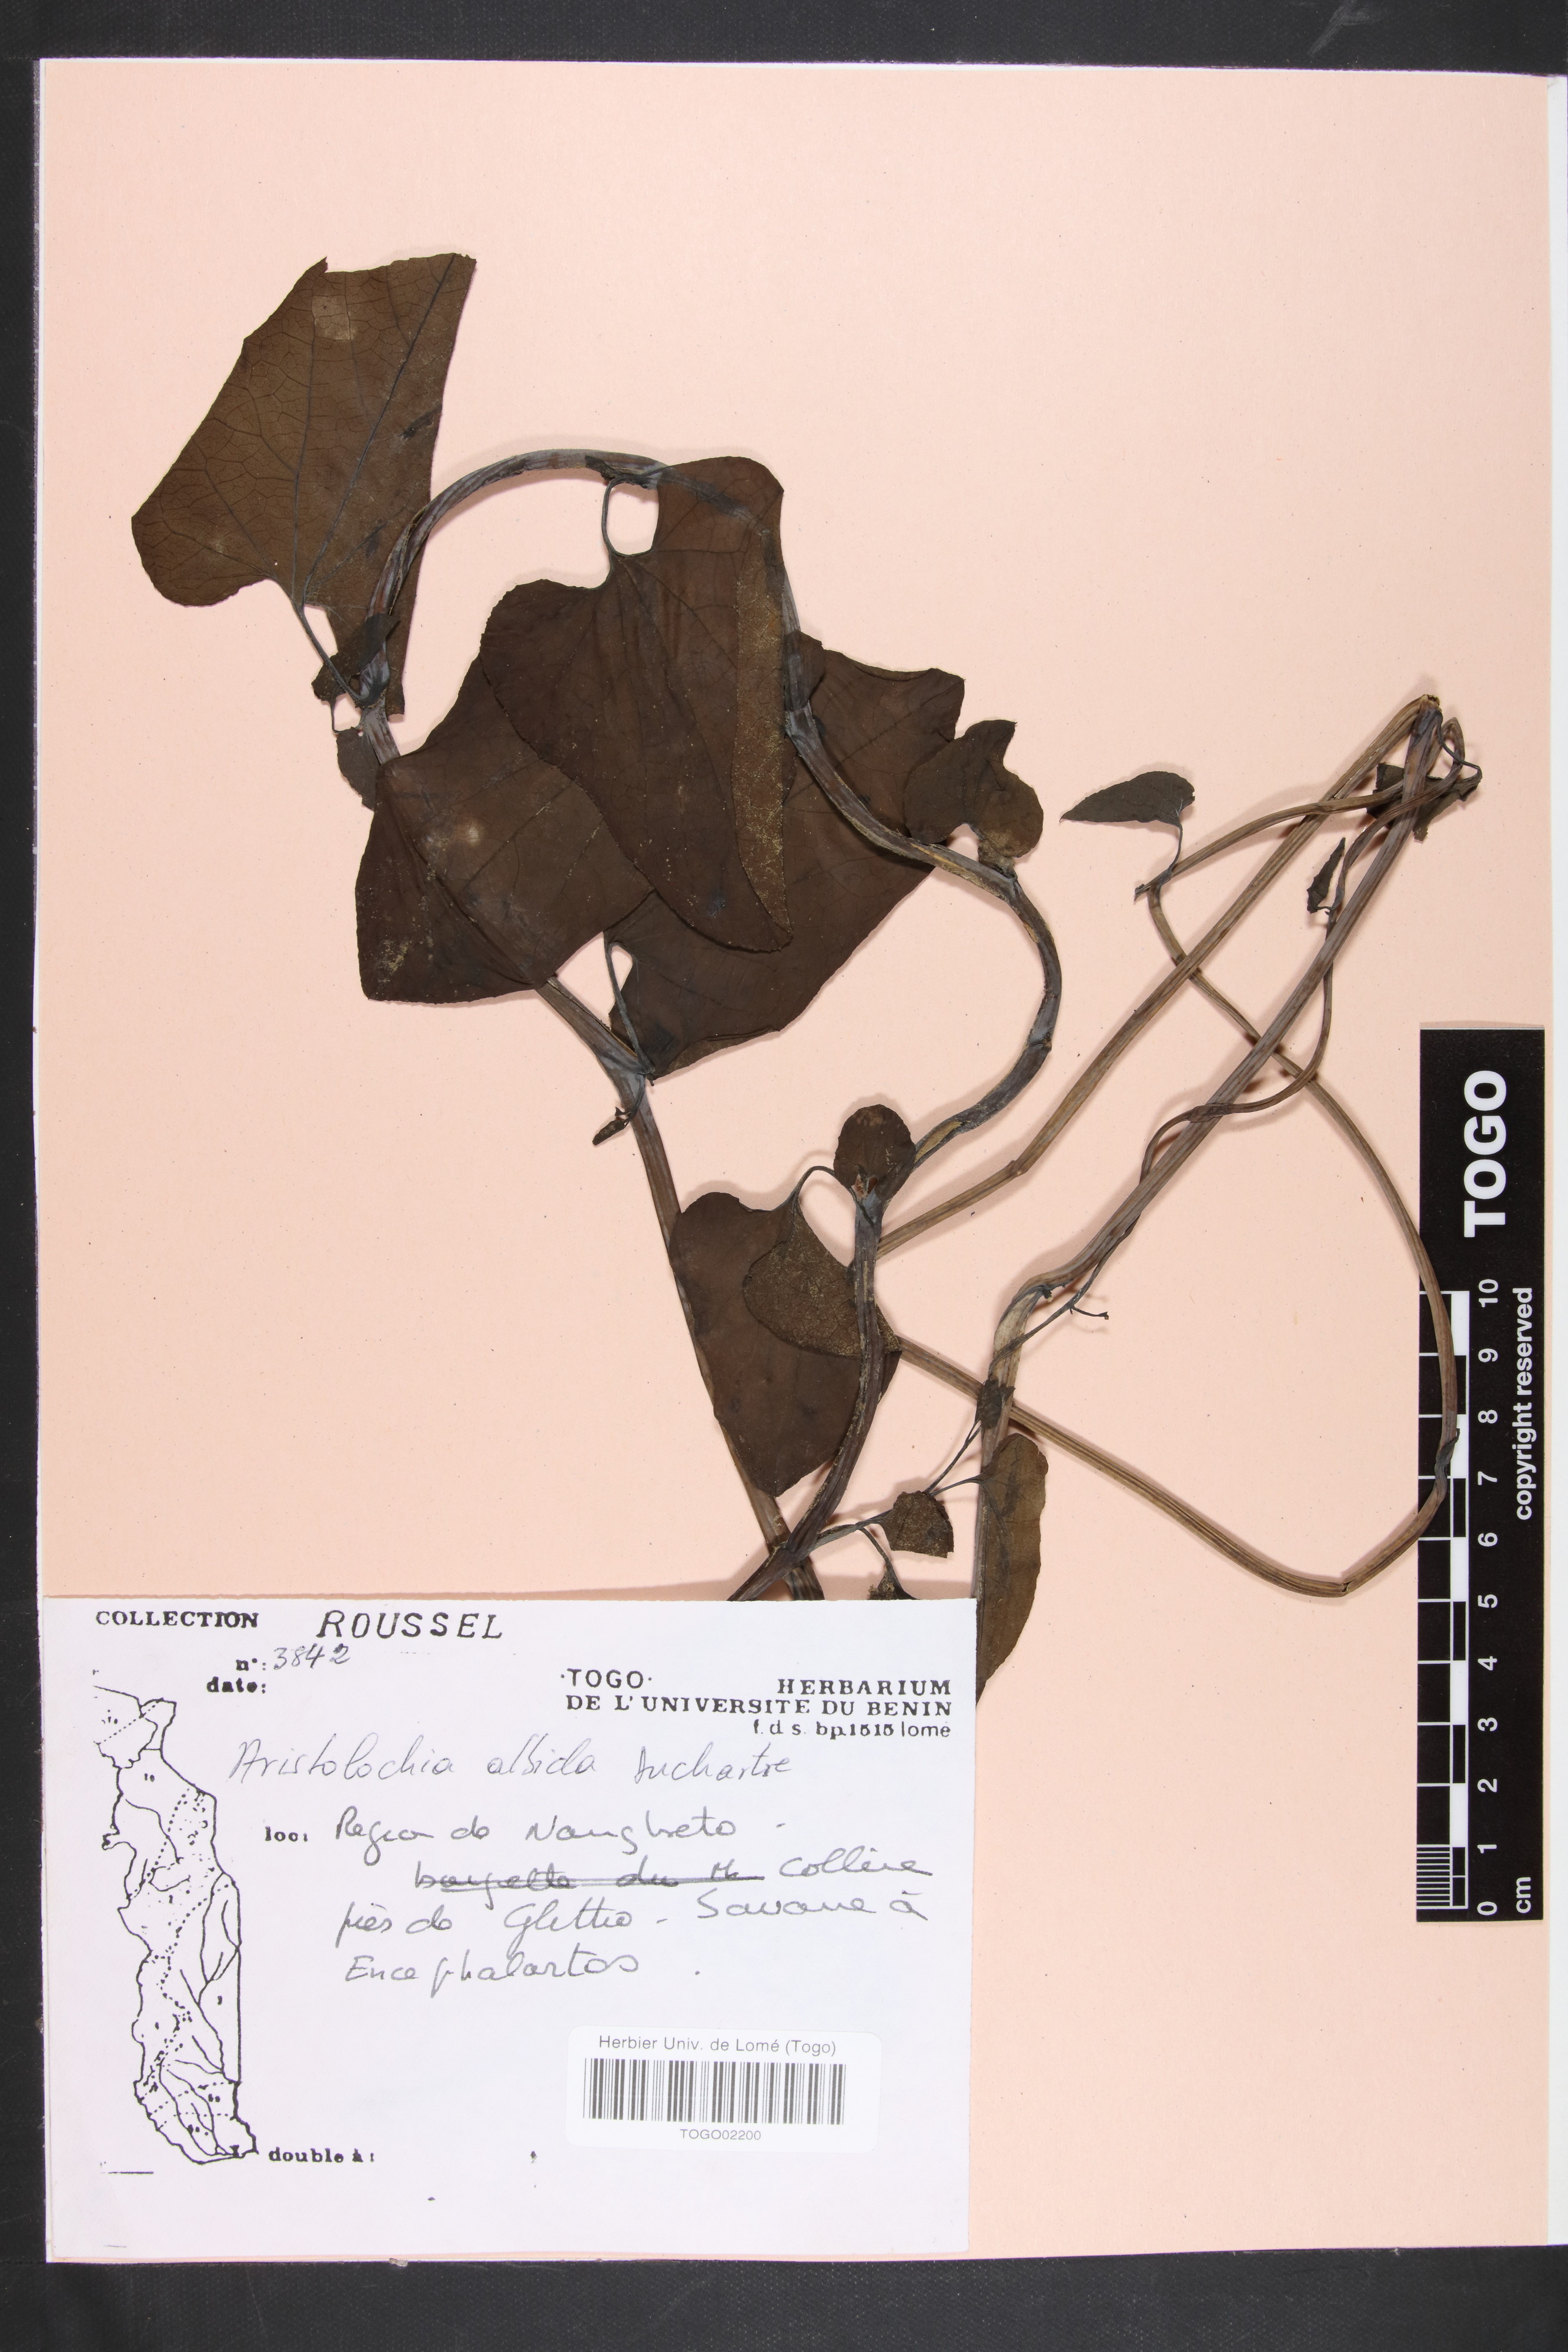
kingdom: Plantae
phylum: Tracheophyta
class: Magnoliopsida
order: Piperales
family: Aristolochiaceae
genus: Aristolochia
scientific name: Aristolochia albida
